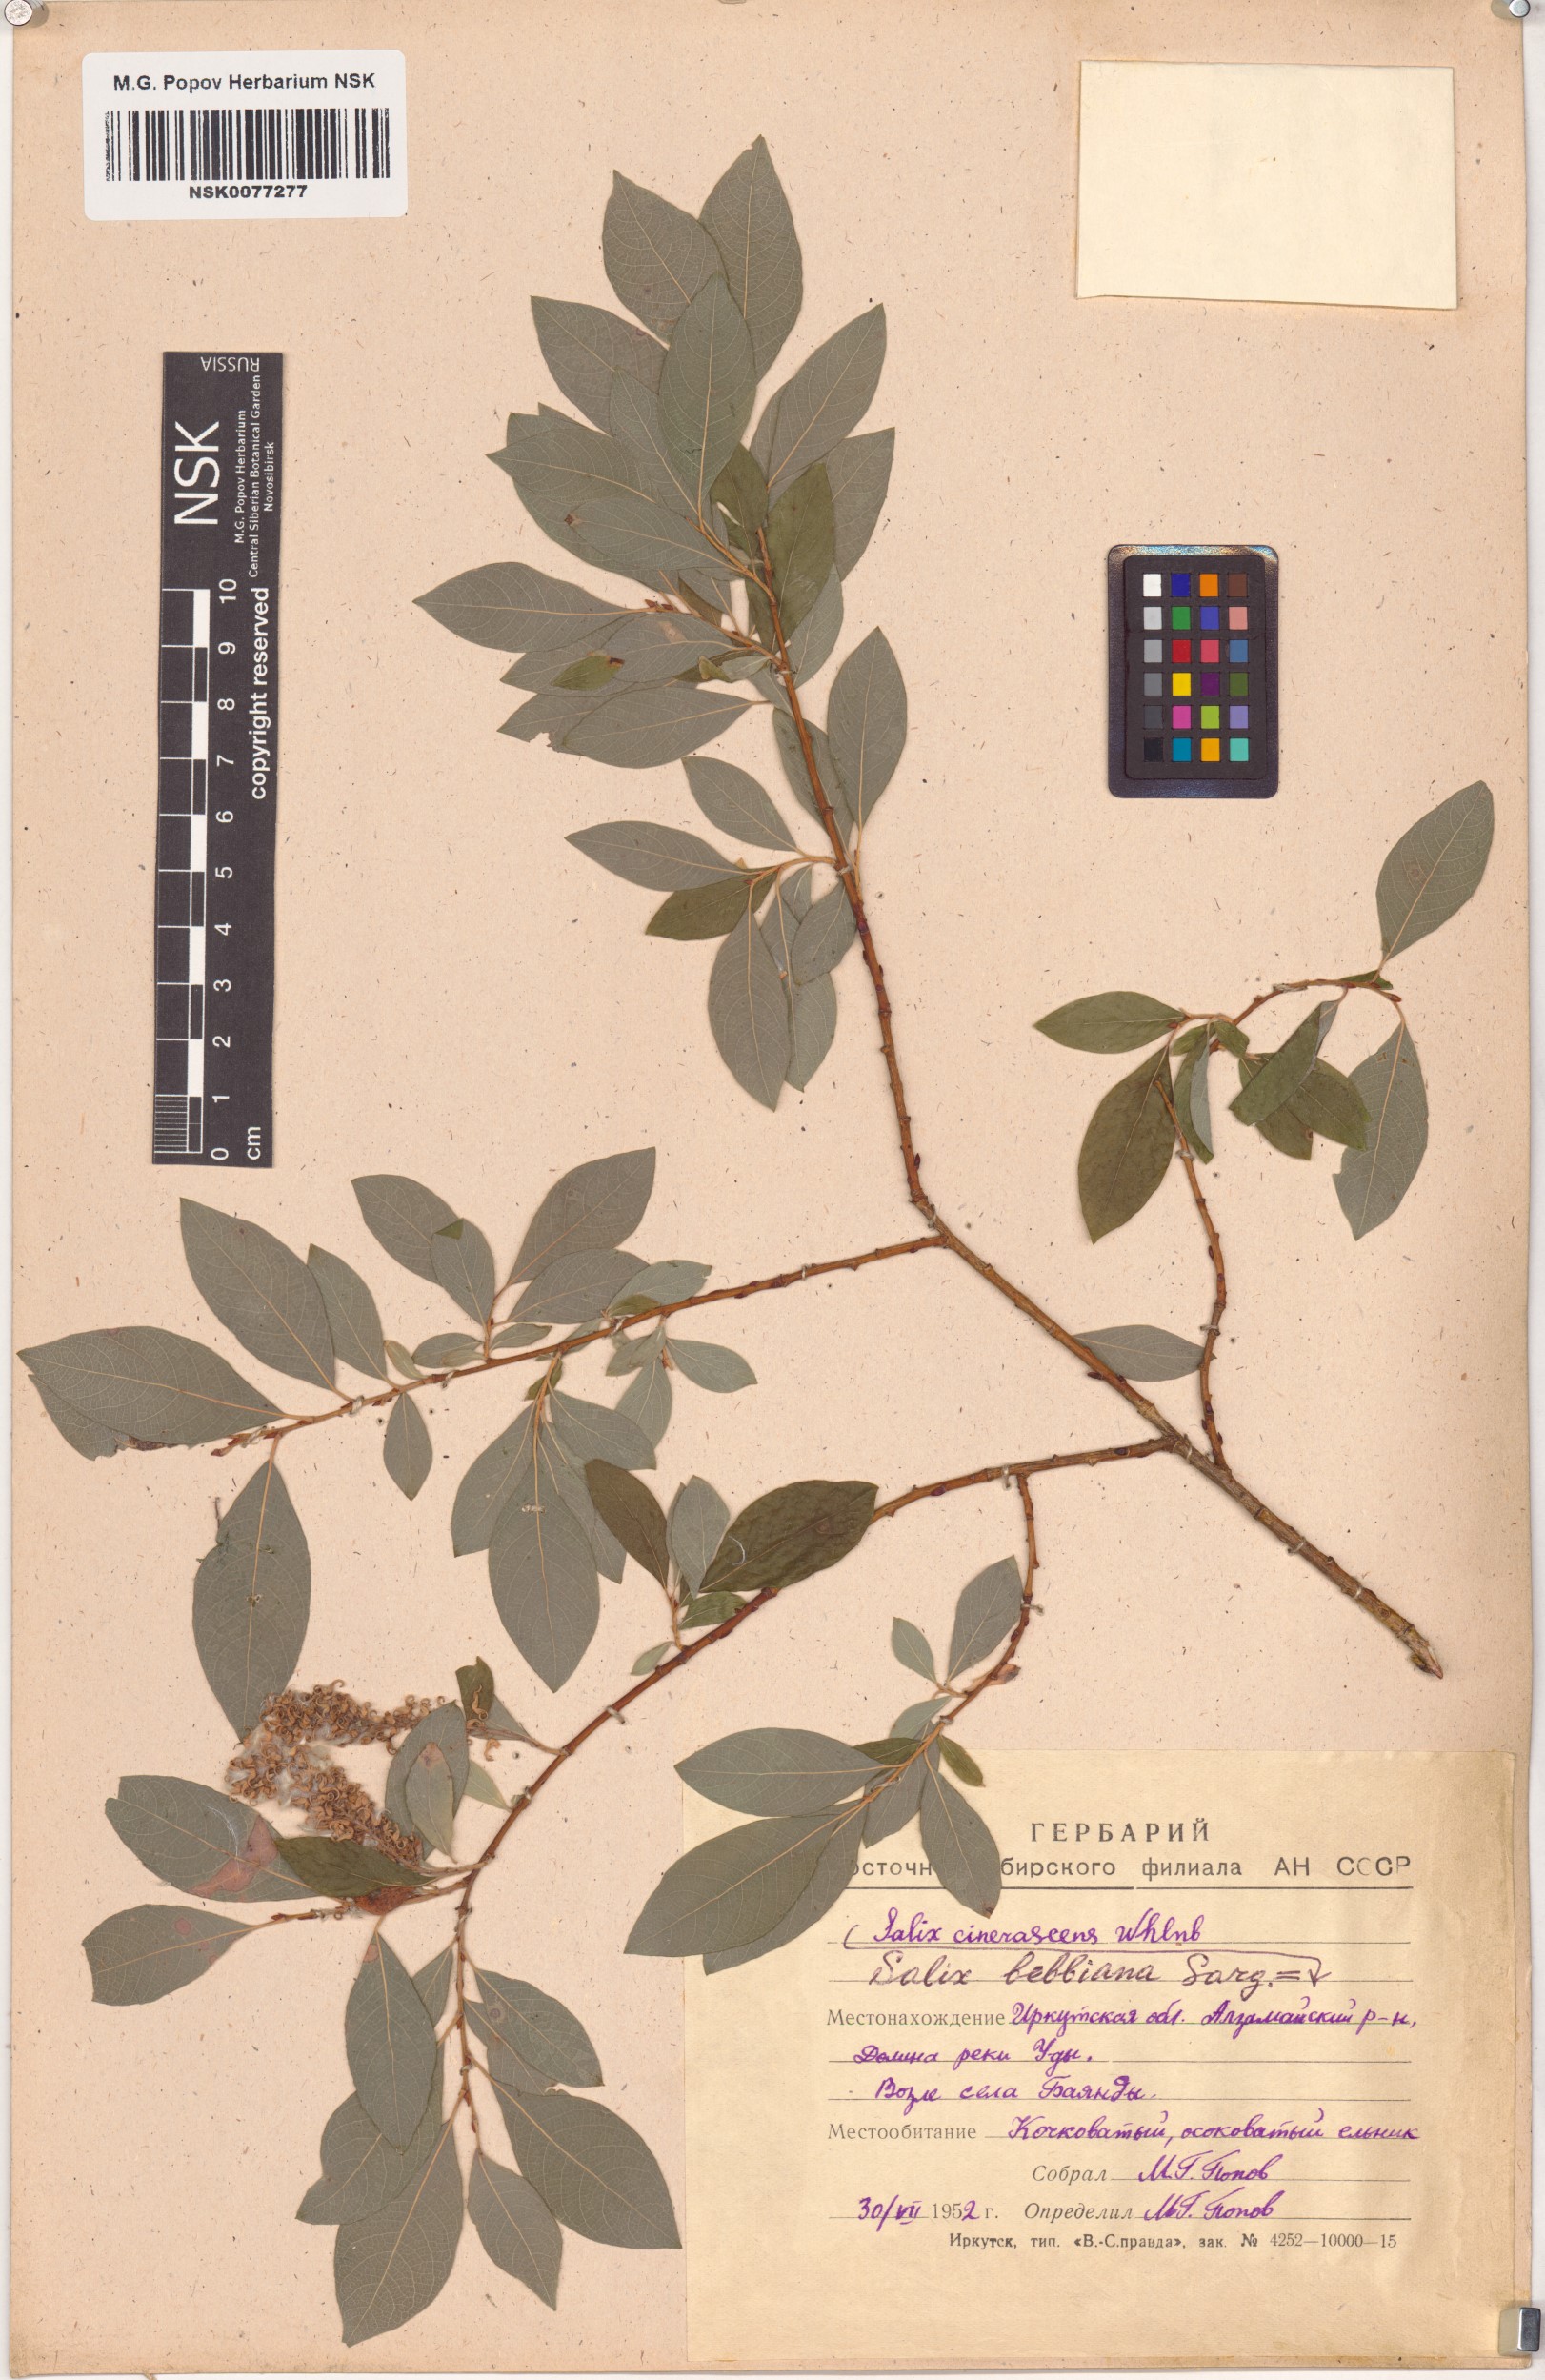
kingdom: Plantae
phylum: Tracheophyta
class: Magnoliopsida
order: Malpighiales
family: Salicaceae
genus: Salix
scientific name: Salix bebbiana
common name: Bebb's willow
